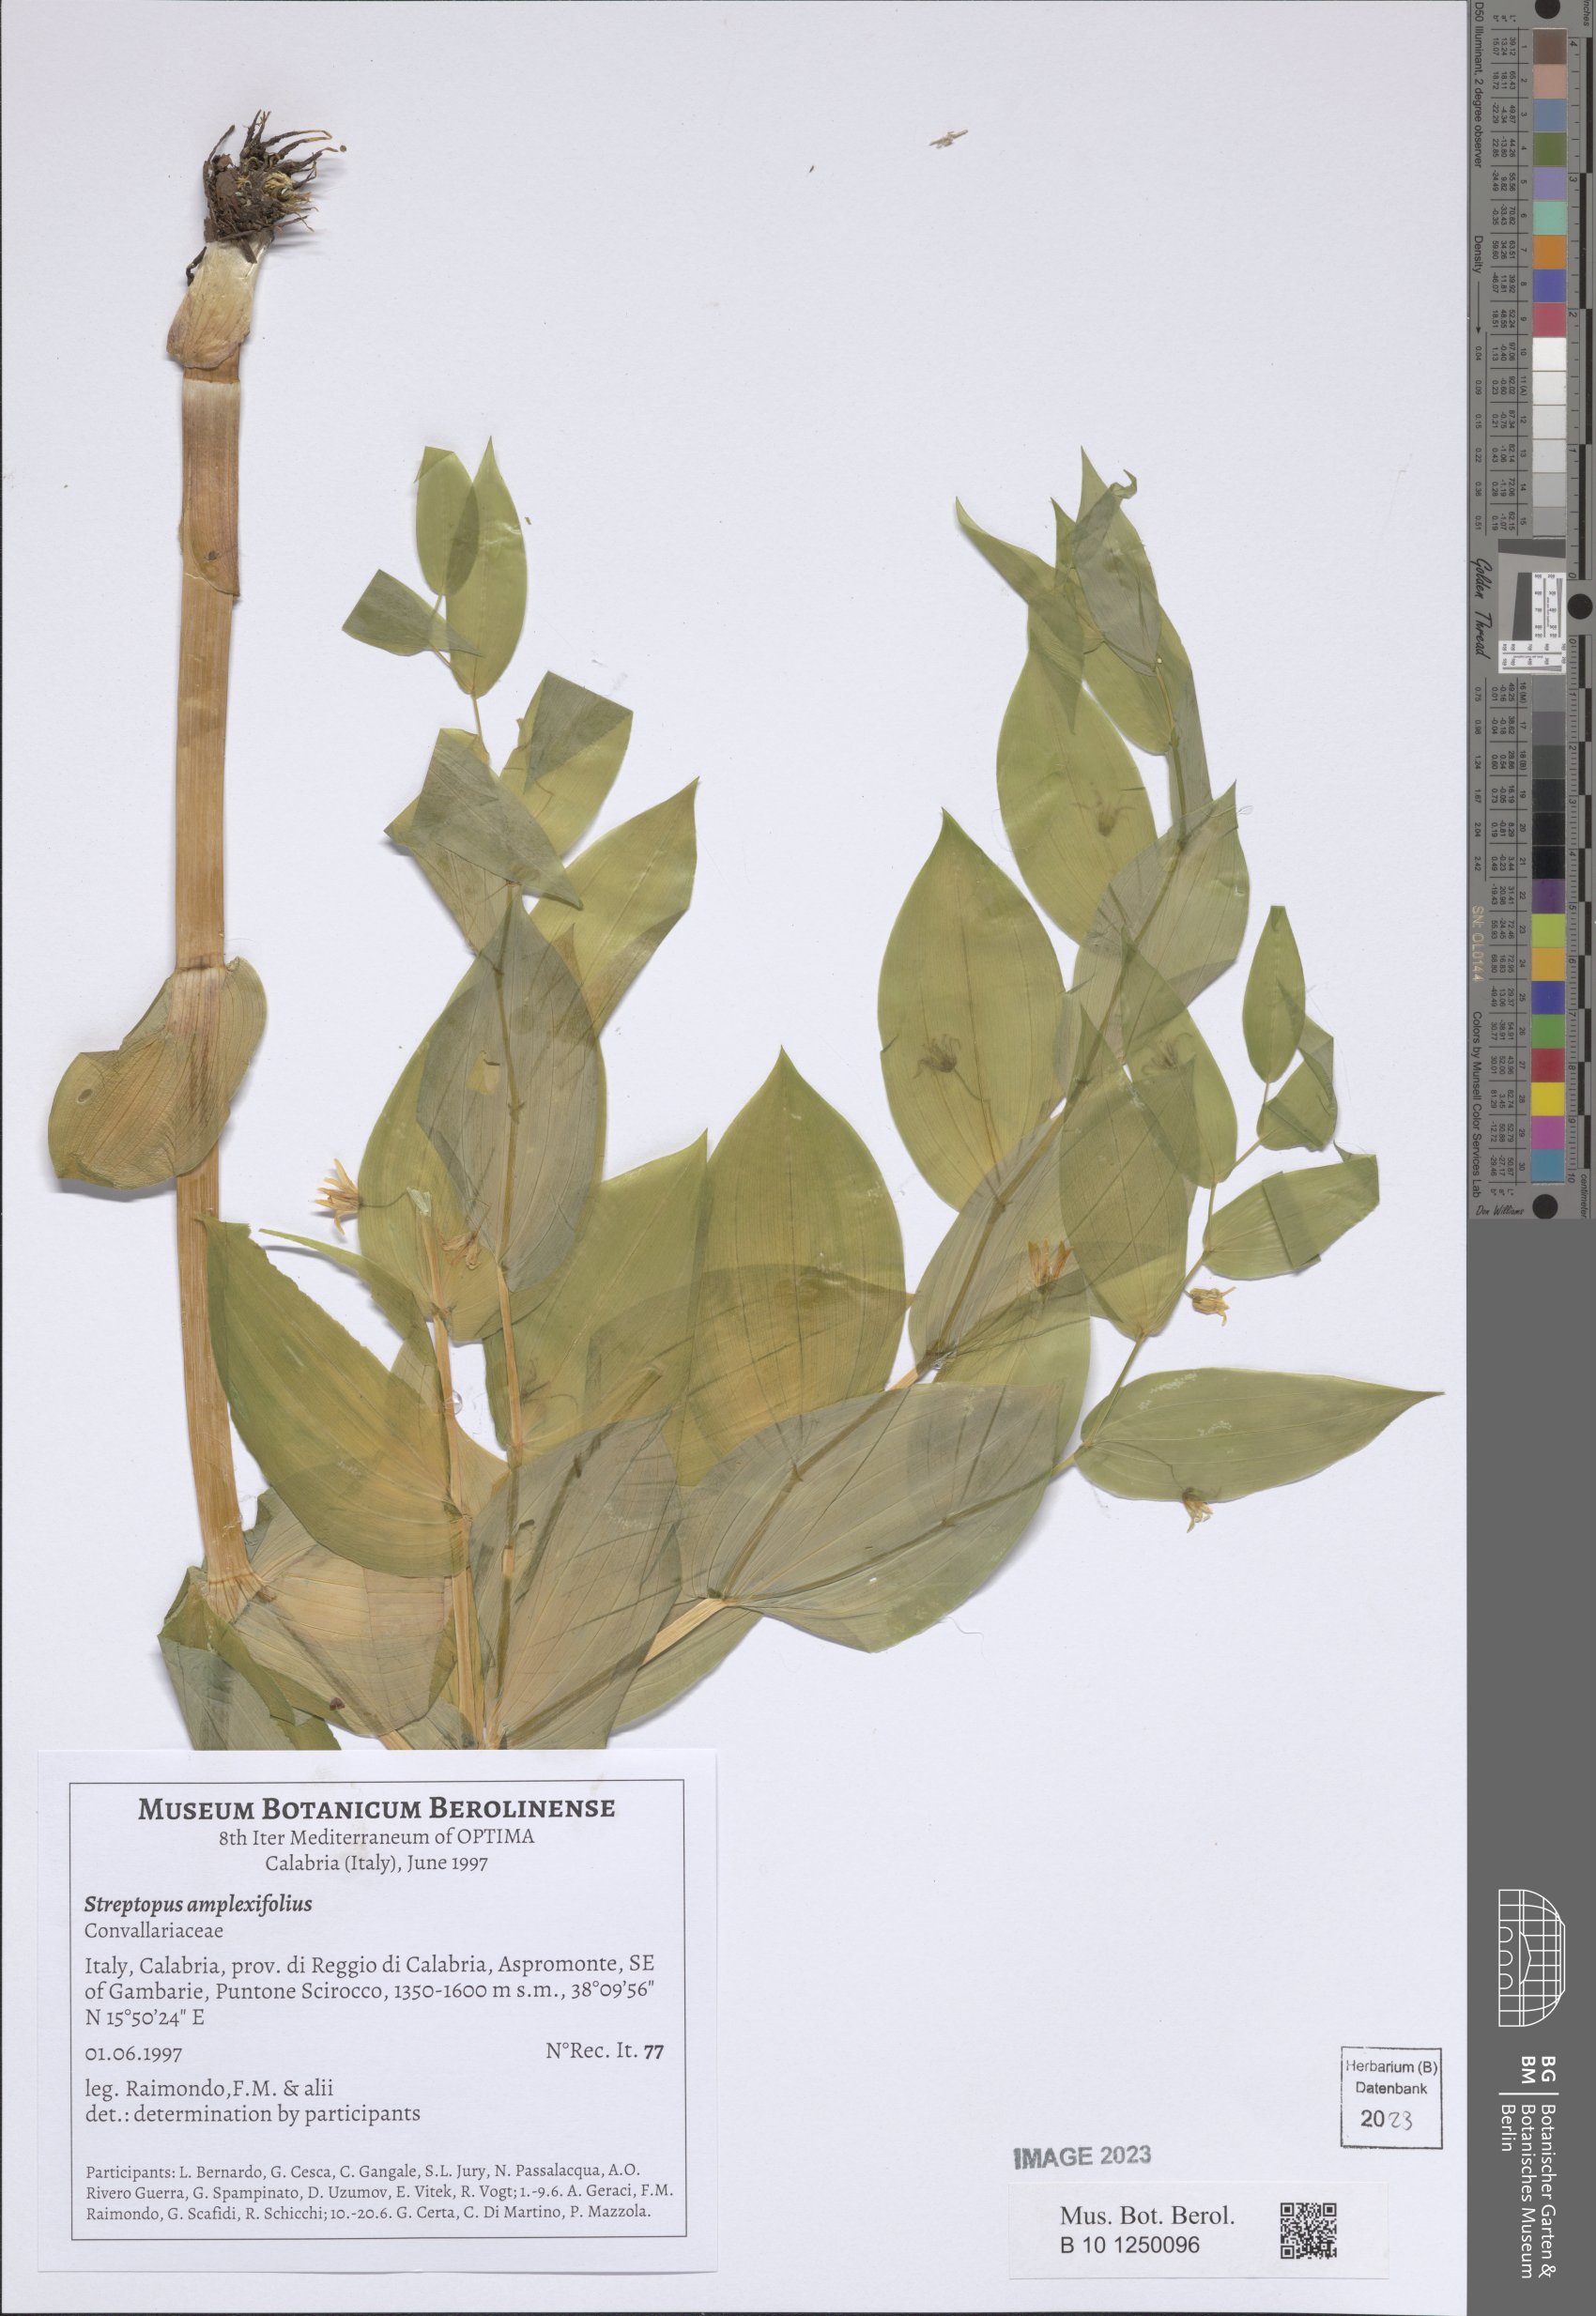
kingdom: Plantae
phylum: Tracheophyta
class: Liliopsida
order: Liliales
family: Liliaceae
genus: Streptopus
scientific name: Streptopus amplexifolius
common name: Clasp twisted stalk
